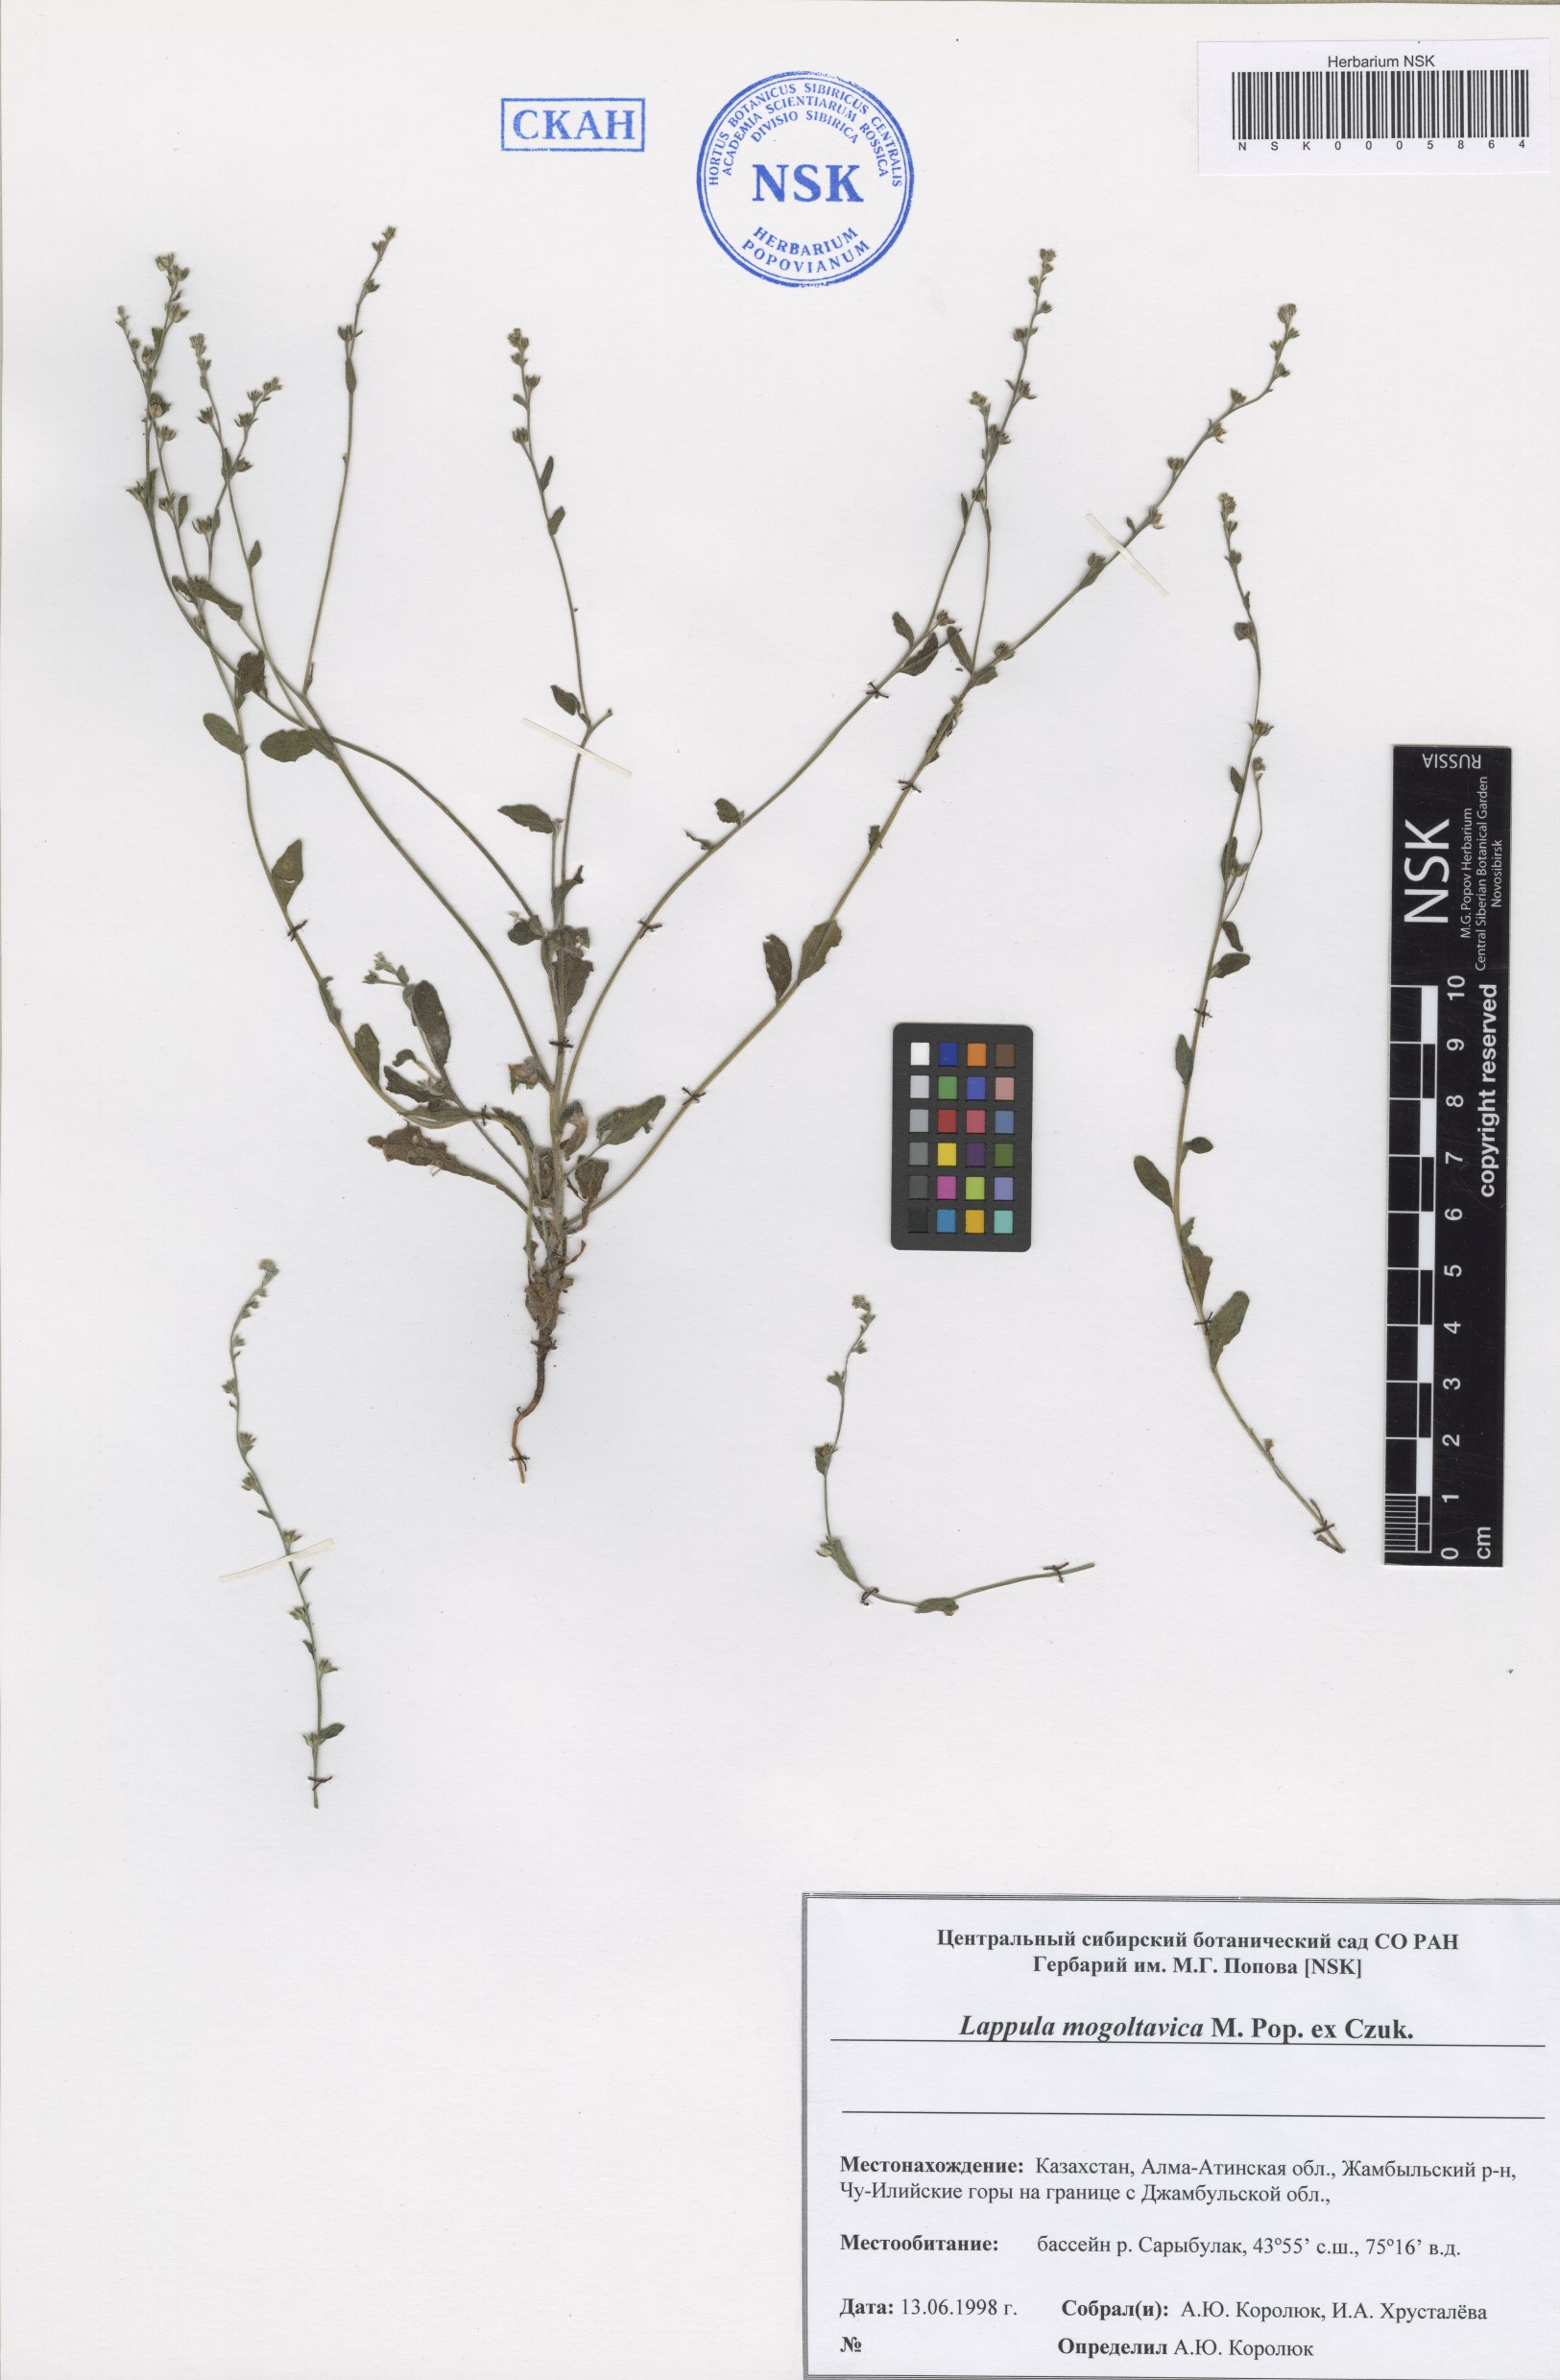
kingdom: Plantae
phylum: Tracheophyta
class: Magnoliopsida
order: Boraginales
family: Boraginaceae
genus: Lappula
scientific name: Lappula mogoltavica
